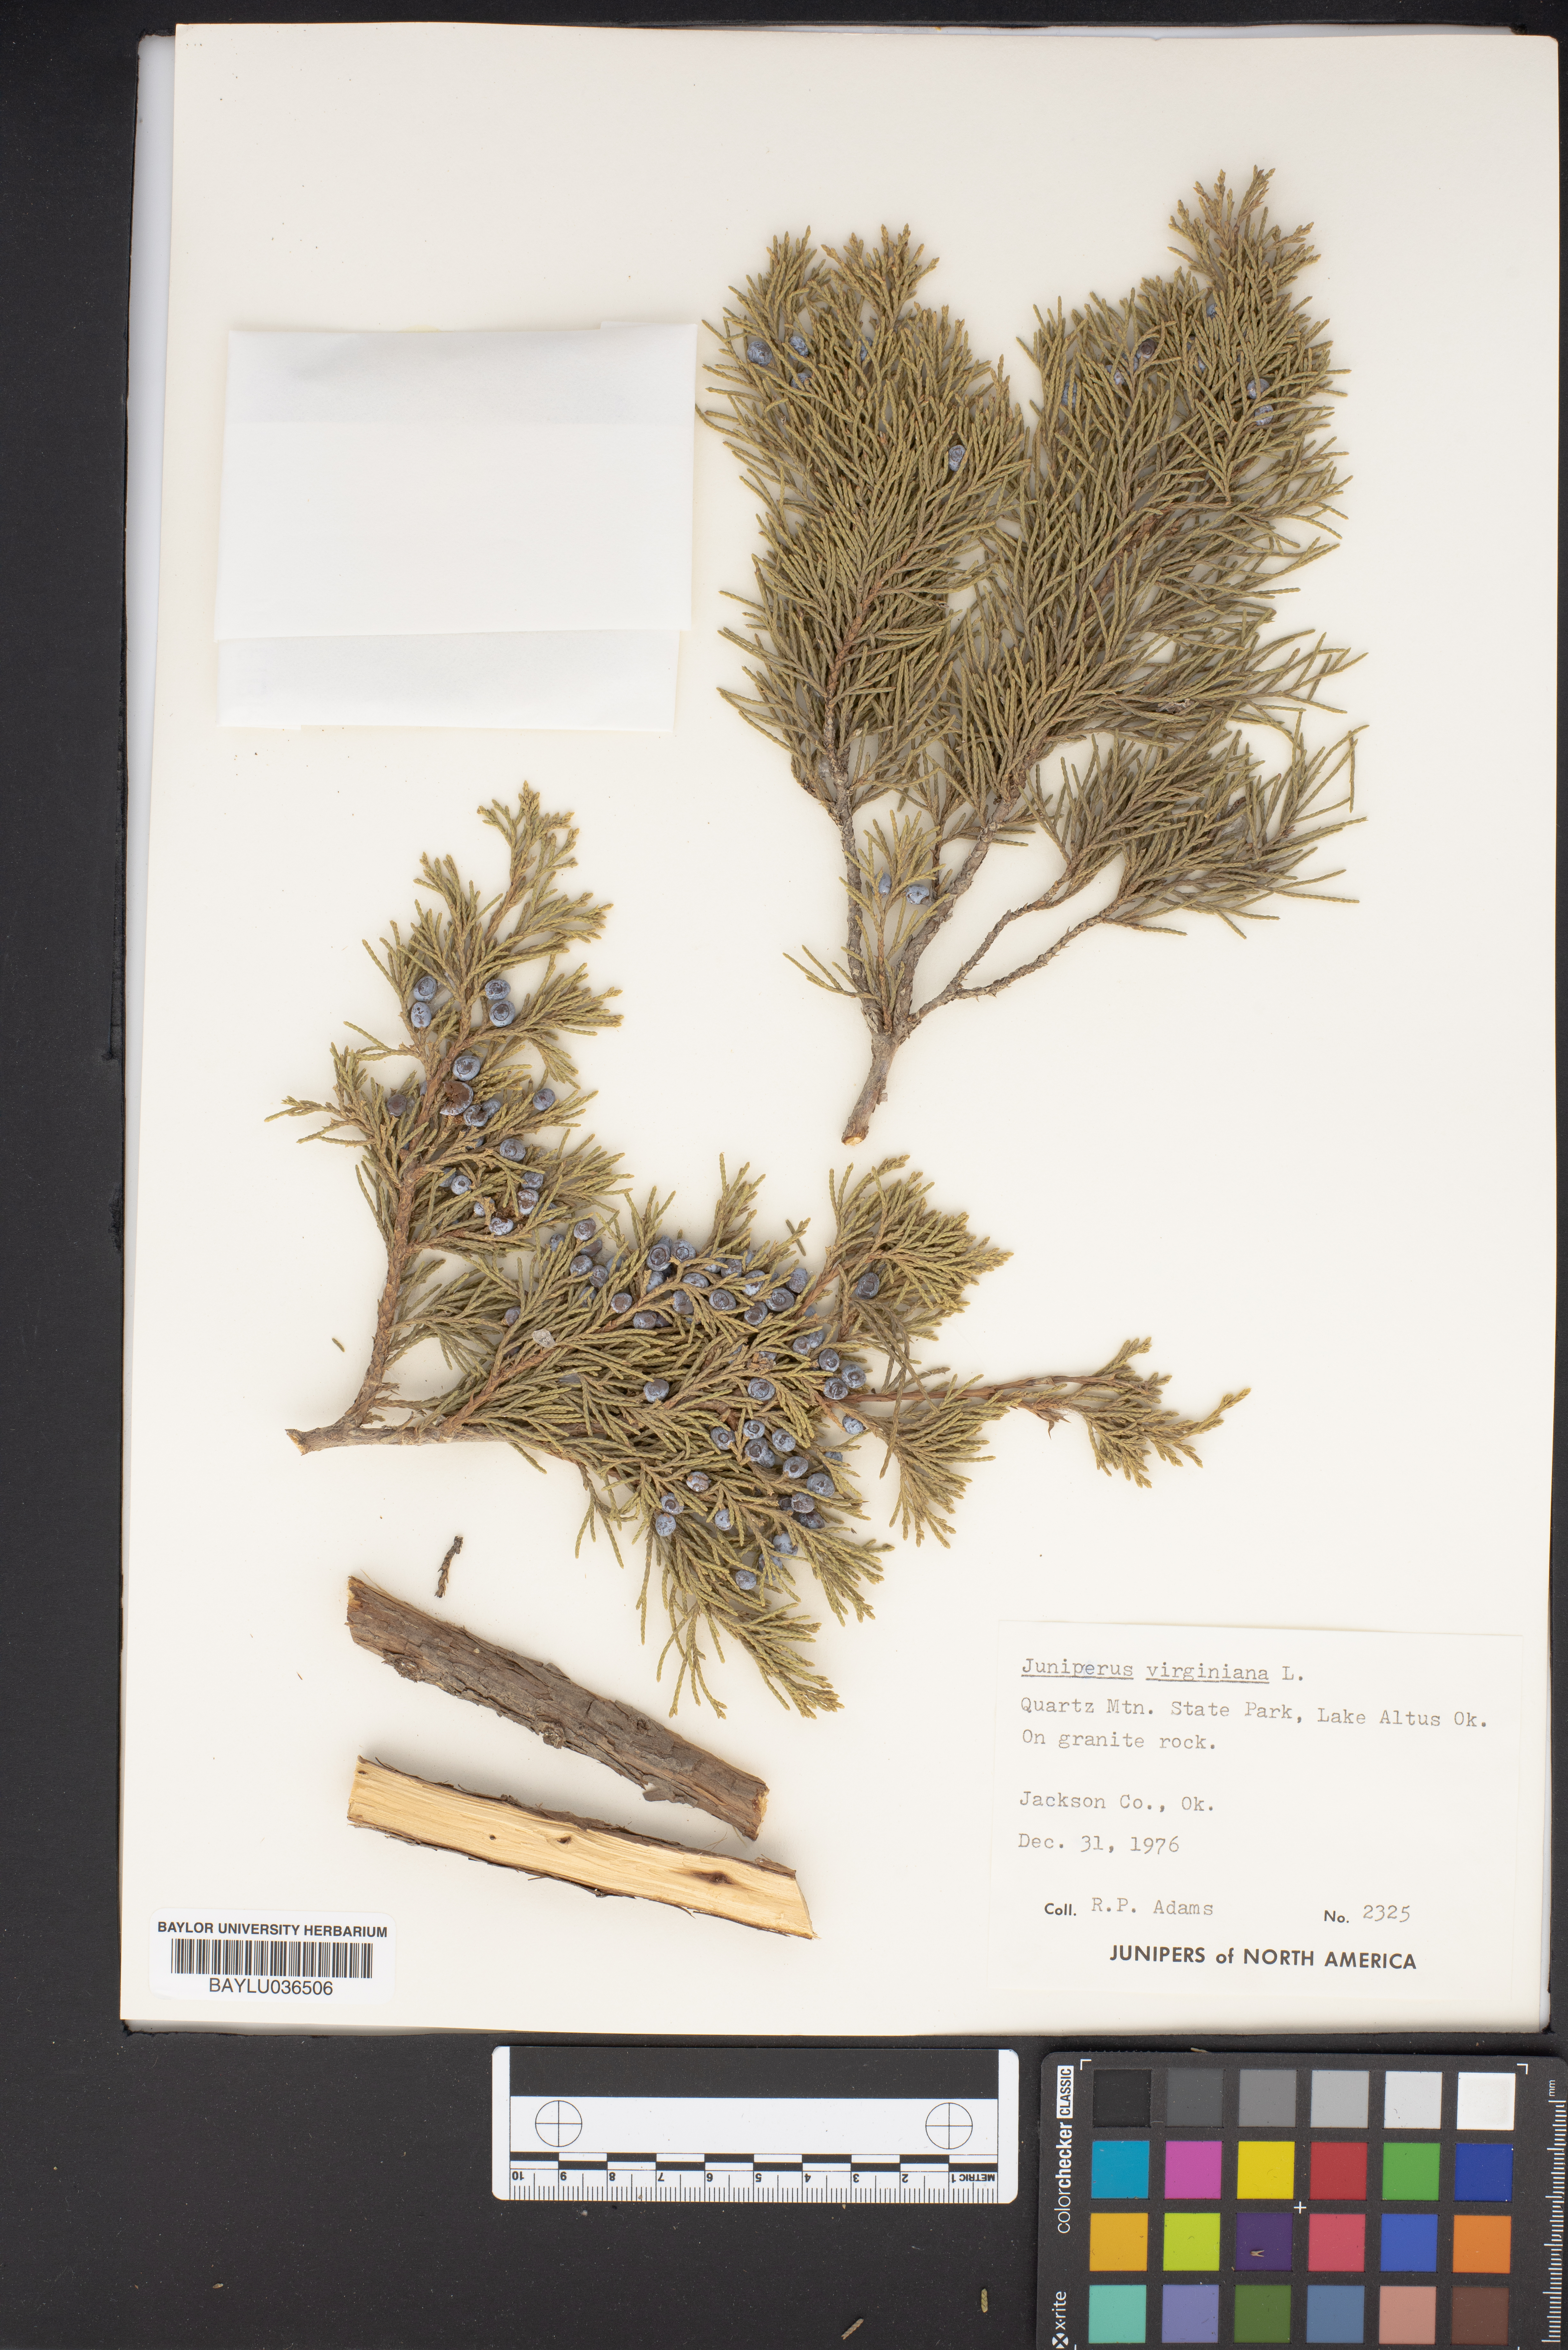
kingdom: Plantae
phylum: Tracheophyta
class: Pinopsida
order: Pinales
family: Cupressaceae
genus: Juniperus
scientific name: Juniperus virginiana
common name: Red juniper
